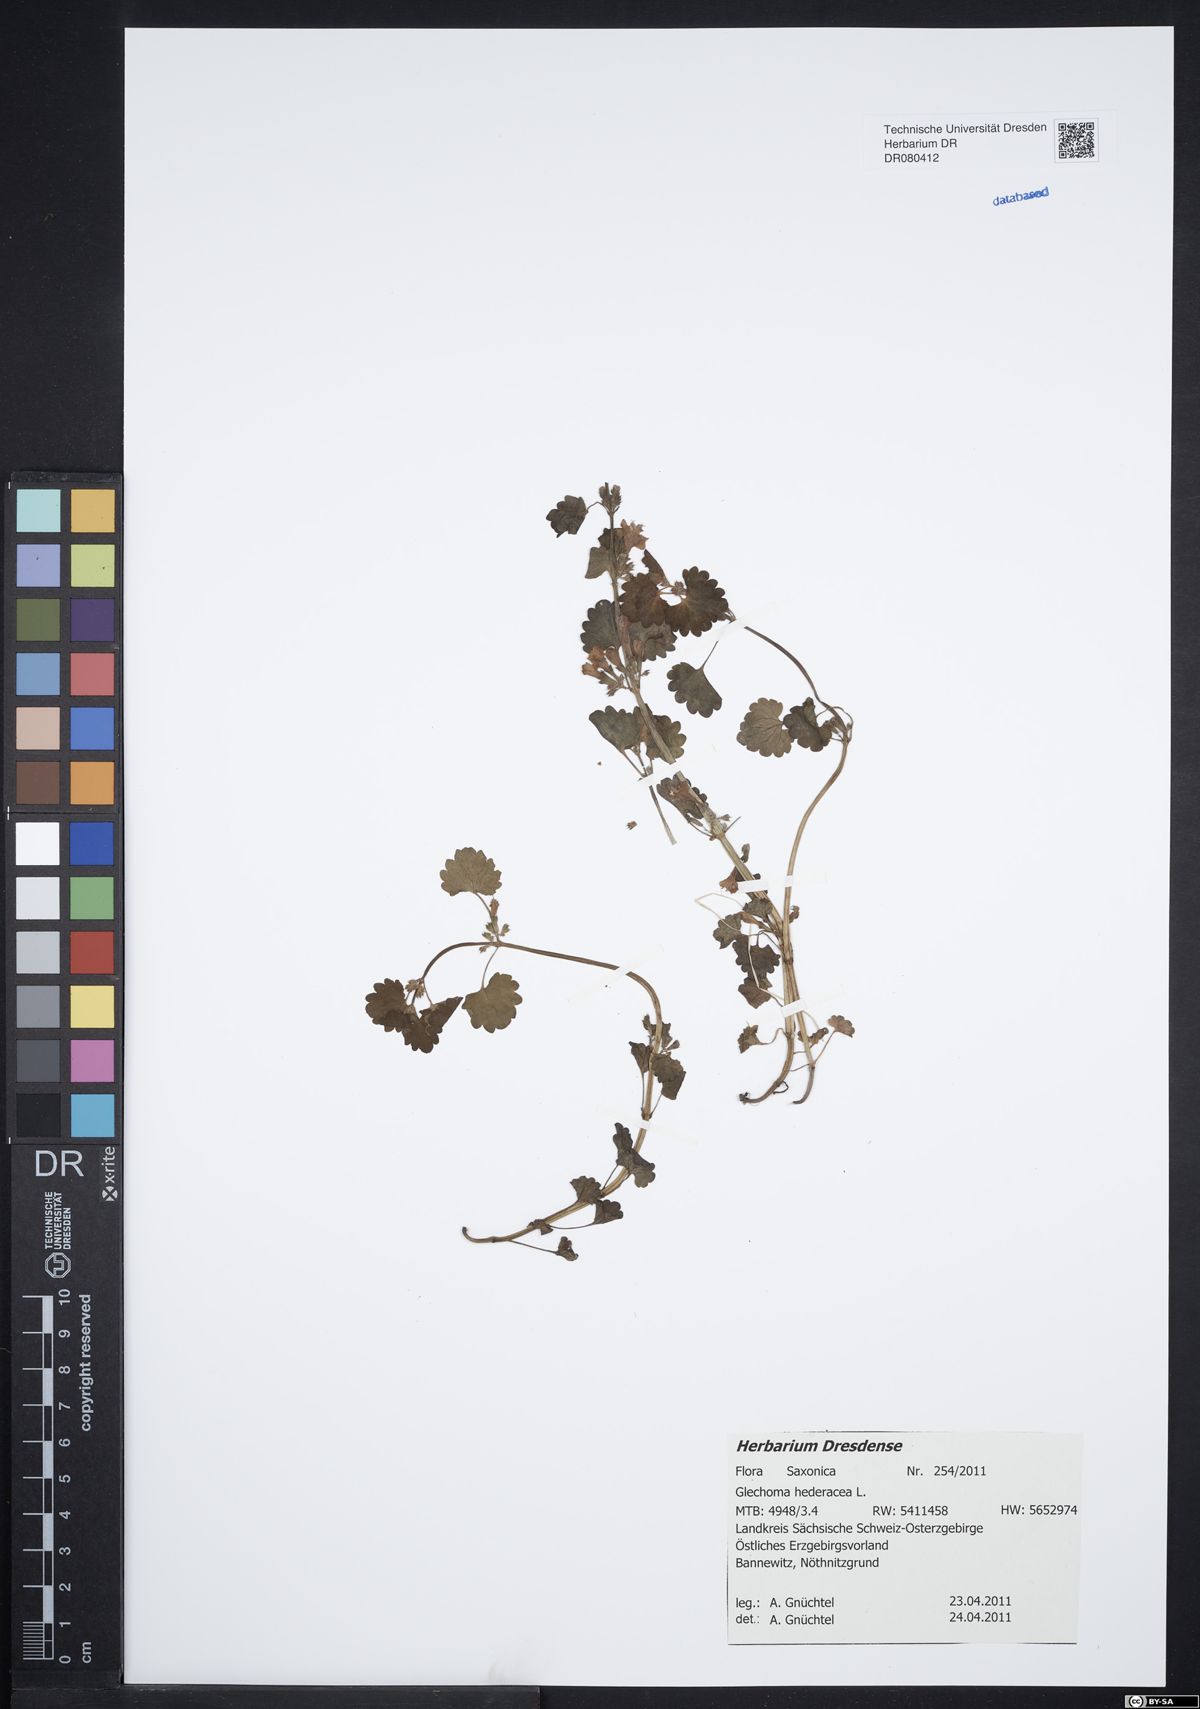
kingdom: Plantae
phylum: Tracheophyta
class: Magnoliopsida
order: Lamiales
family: Lamiaceae
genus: Glechoma
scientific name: Glechoma hederacea
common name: Ground ivy
